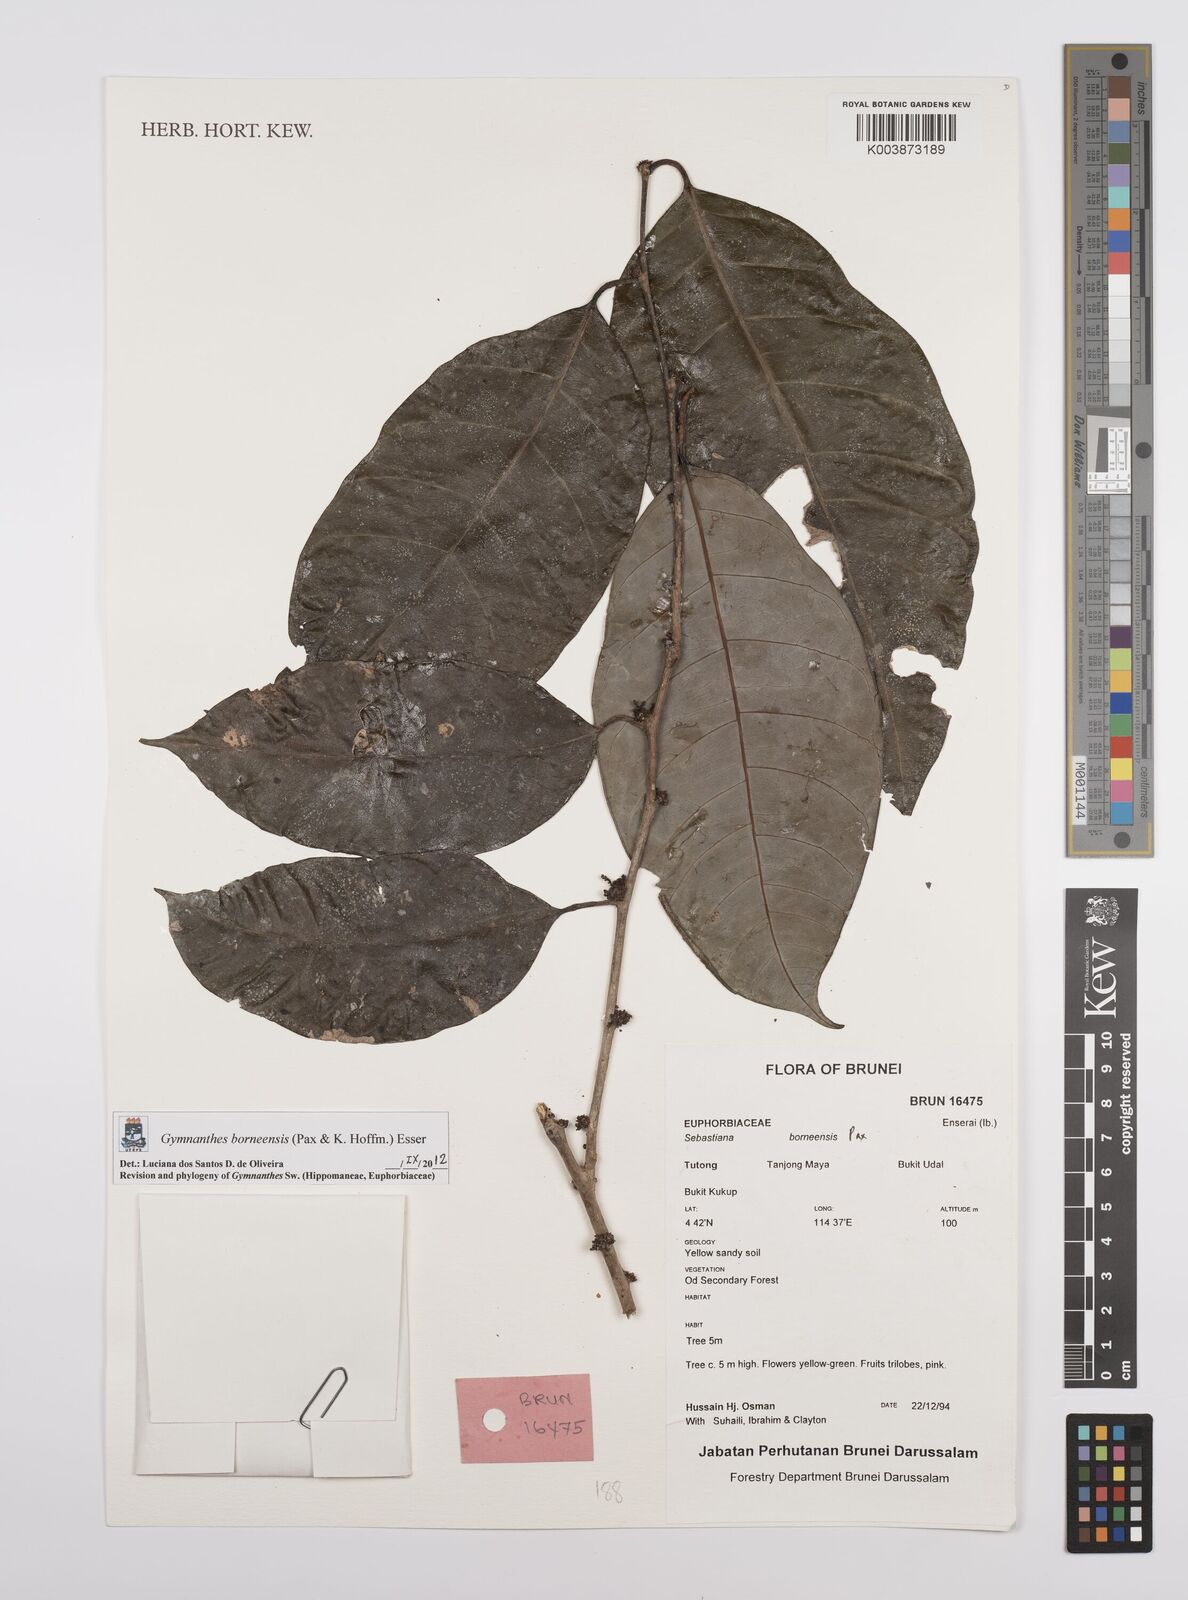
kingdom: Plantae
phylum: Tracheophyta
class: Magnoliopsida
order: Malpighiales
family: Euphorbiaceae
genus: Gymnanthes
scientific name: Gymnanthes borneensis
